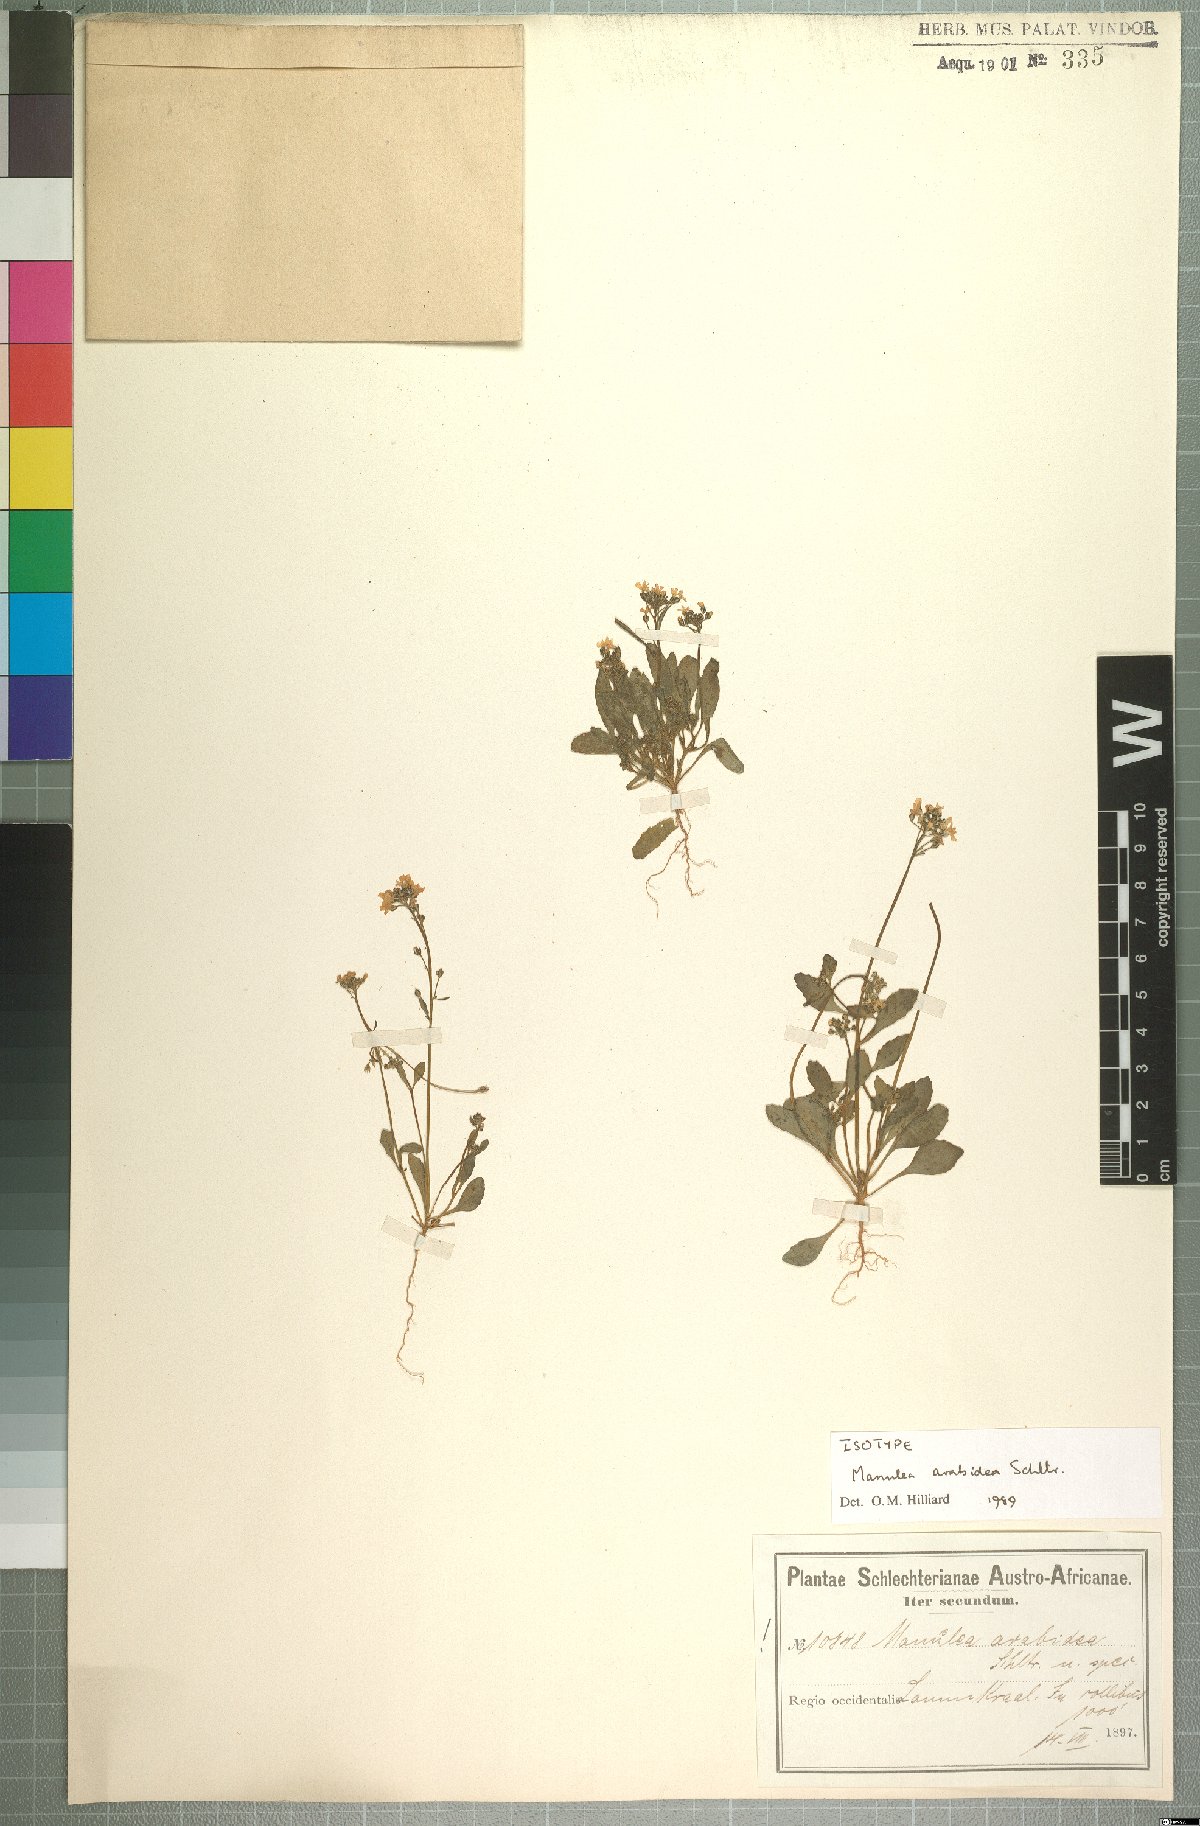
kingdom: Plantae
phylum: Tracheophyta
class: Magnoliopsida
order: Lamiales
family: Scrophulariaceae
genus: Manulea
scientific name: Manulea arabidea
